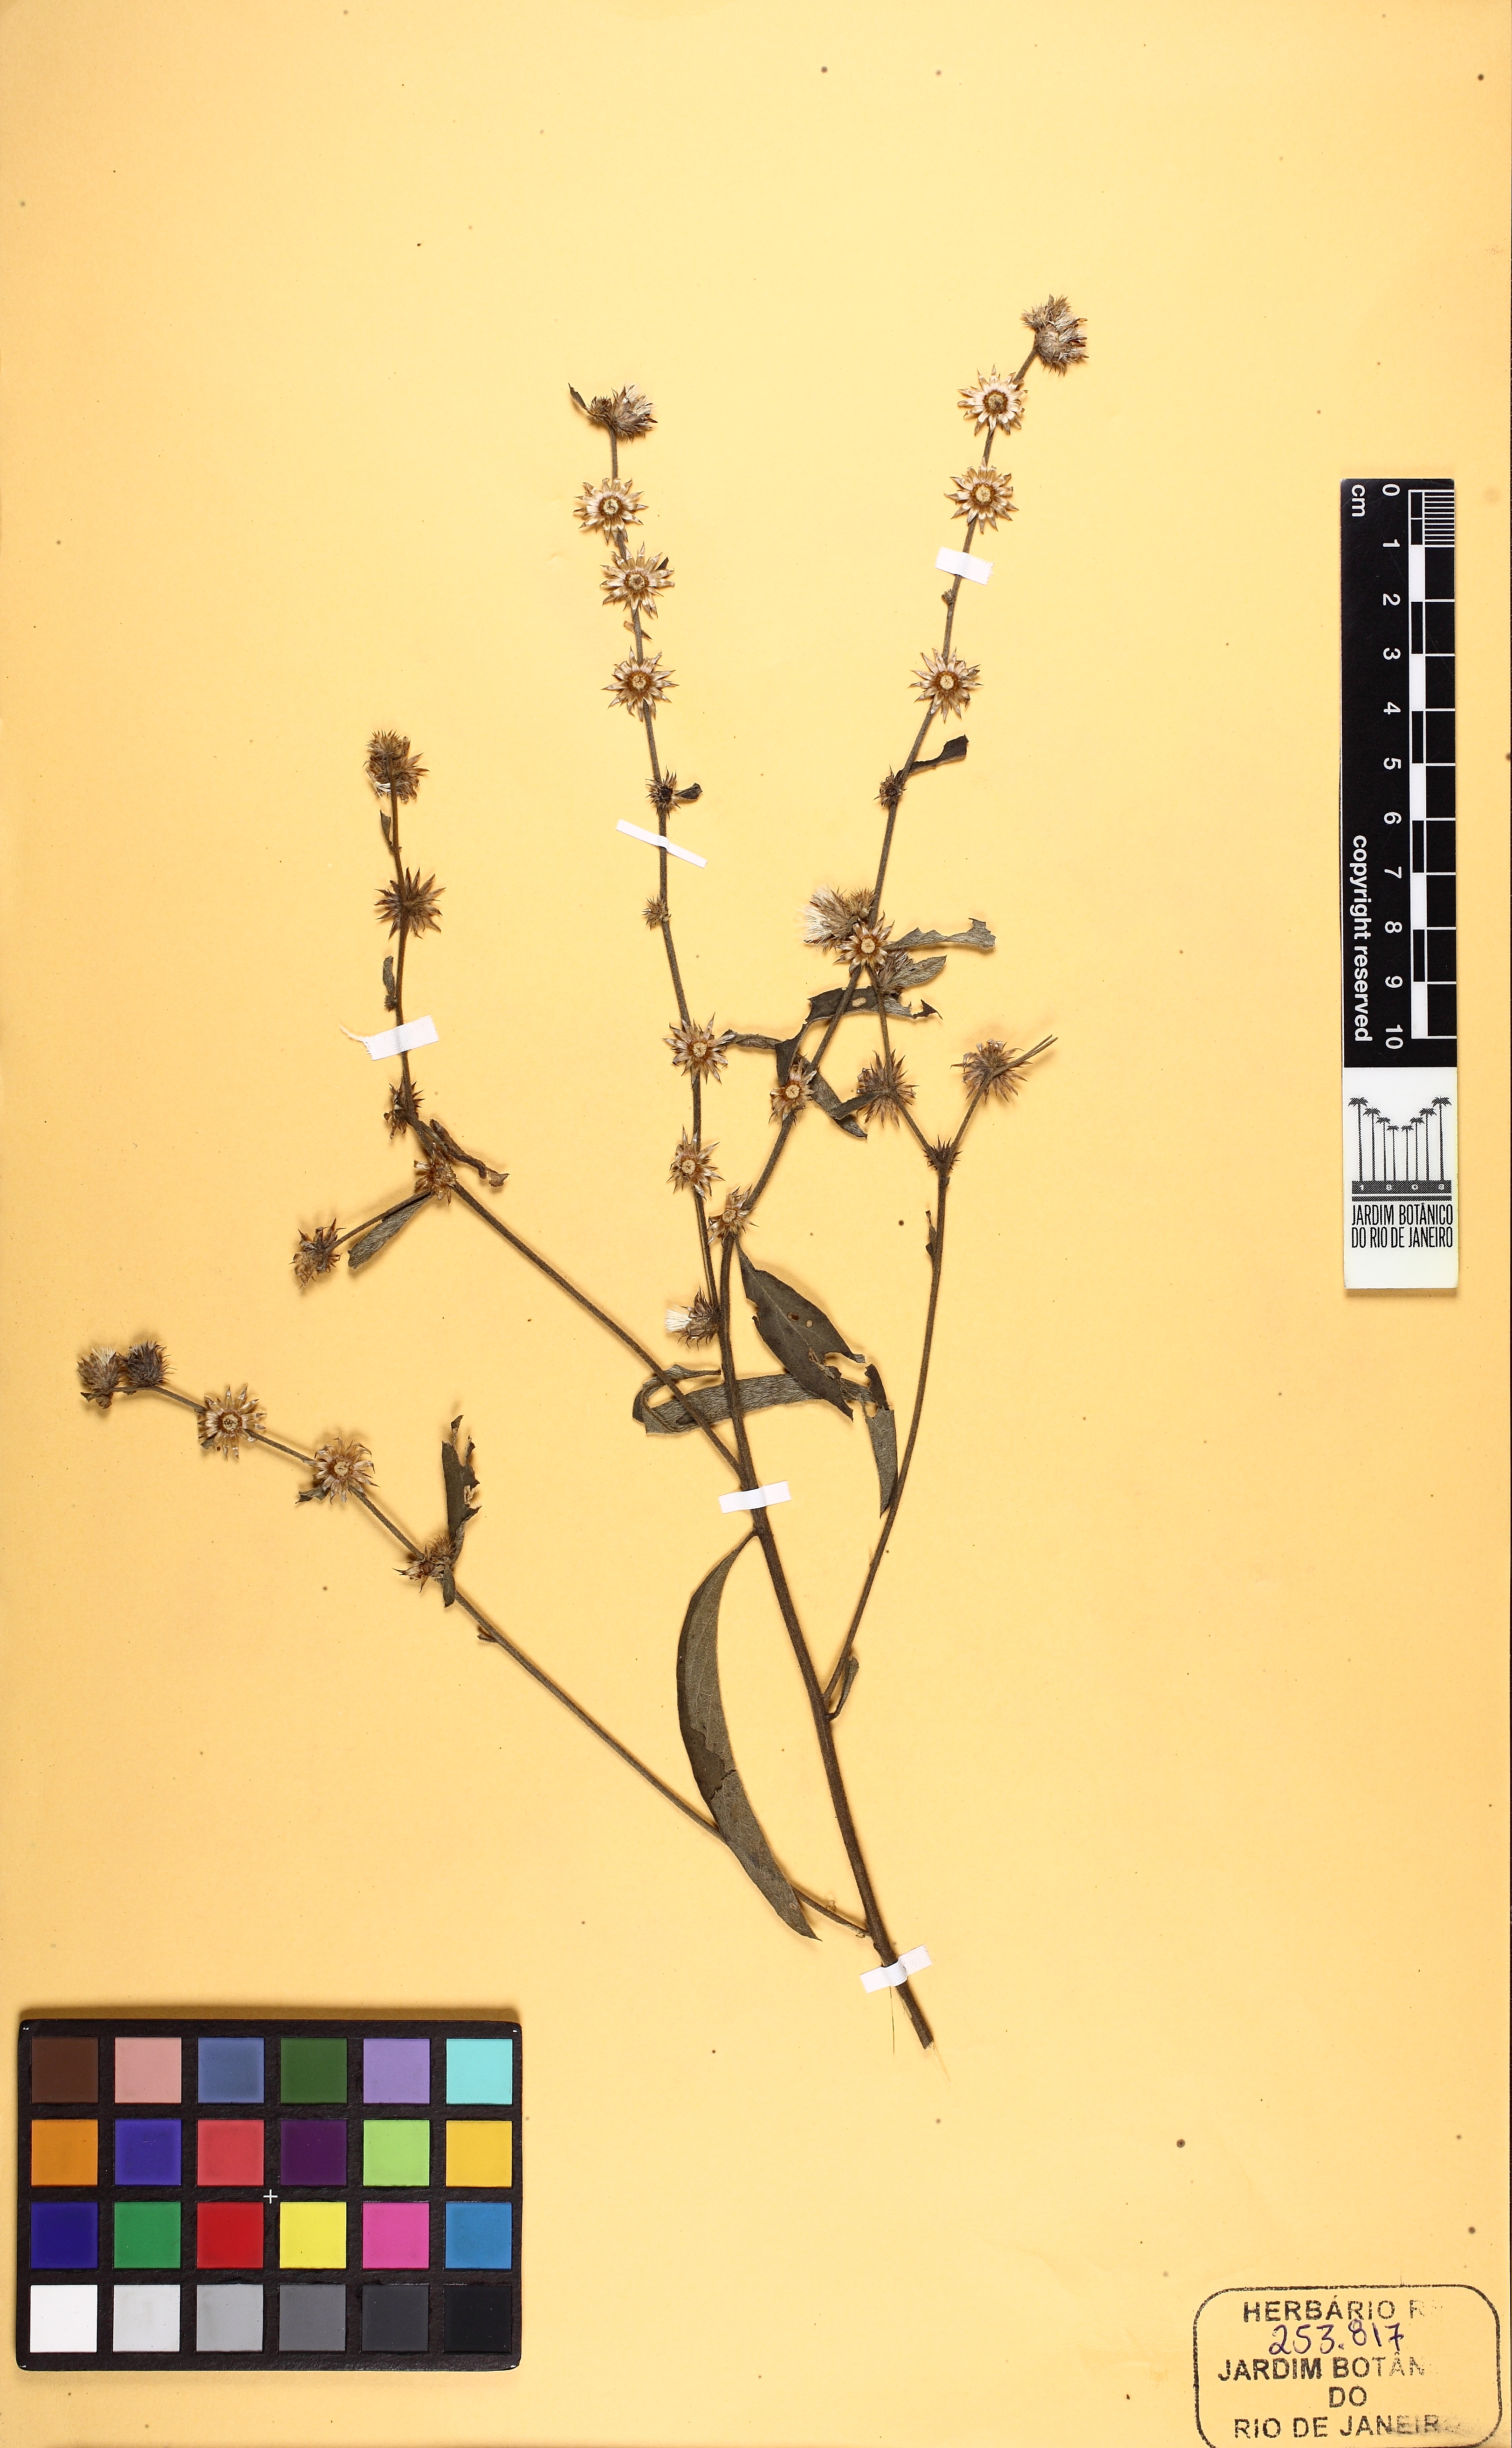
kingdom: Plantae
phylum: Tracheophyta
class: Magnoliopsida
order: Asterales
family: Asteraceae
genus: Lepidaploa
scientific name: Lepidaploa arenaria
